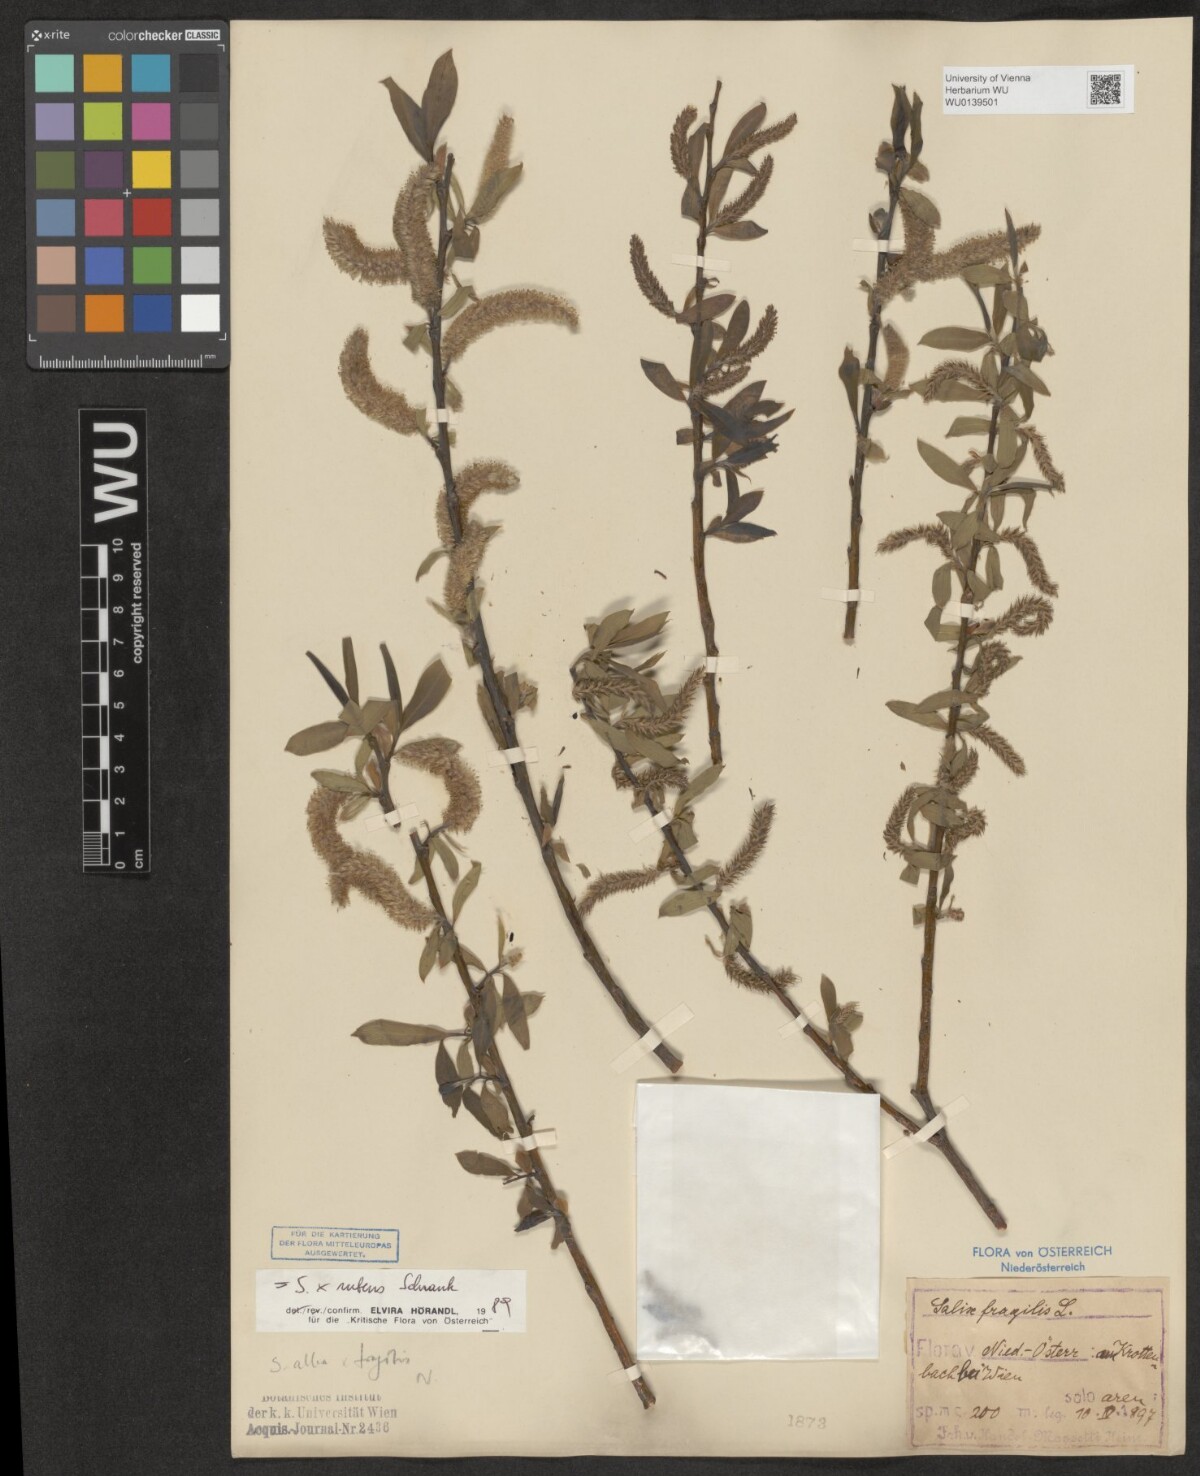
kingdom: Plantae
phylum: Tracheophyta
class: Magnoliopsida
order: Malpighiales
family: Salicaceae
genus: Salix
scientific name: Salix rubens
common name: Hybrid crack willow
